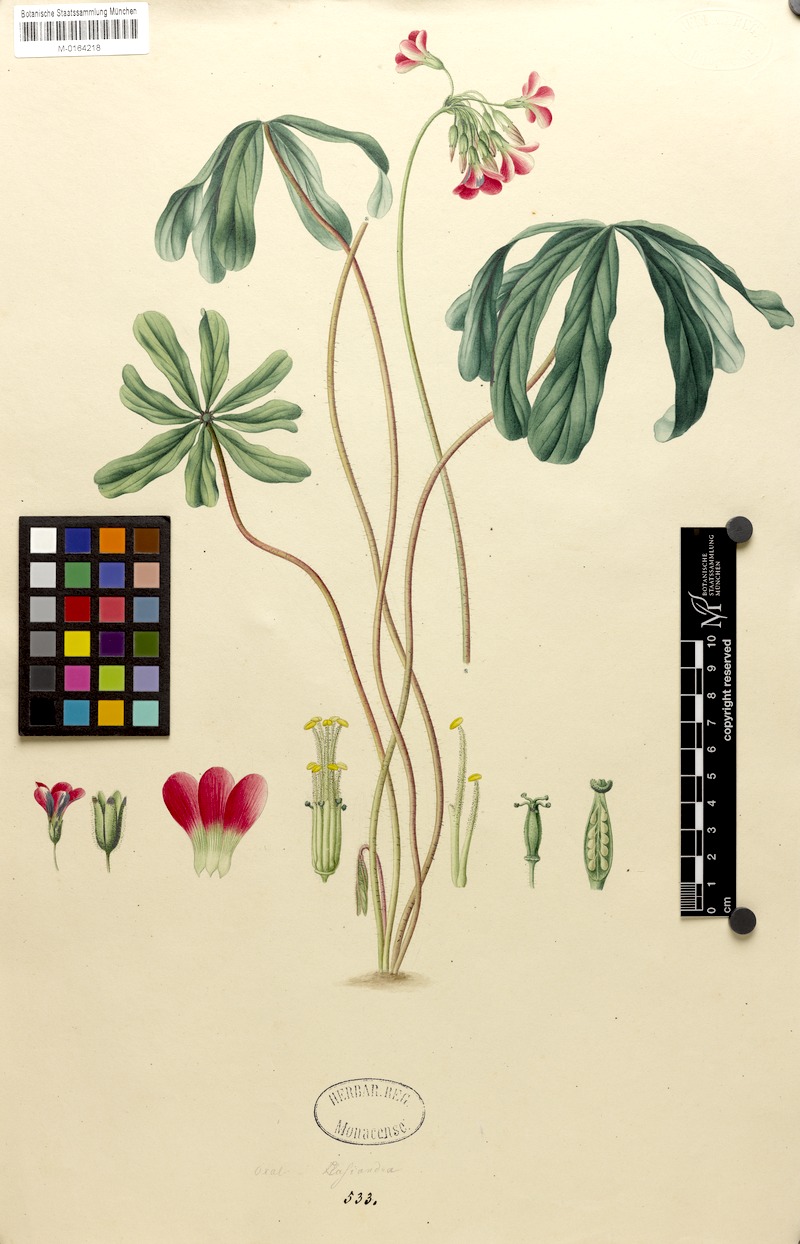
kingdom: Plantae
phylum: Tracheophyta
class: Magnoliopsida
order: Oxalidales
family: Oxalidaceae
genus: Oxalis
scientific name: Oxalis lasiandra
